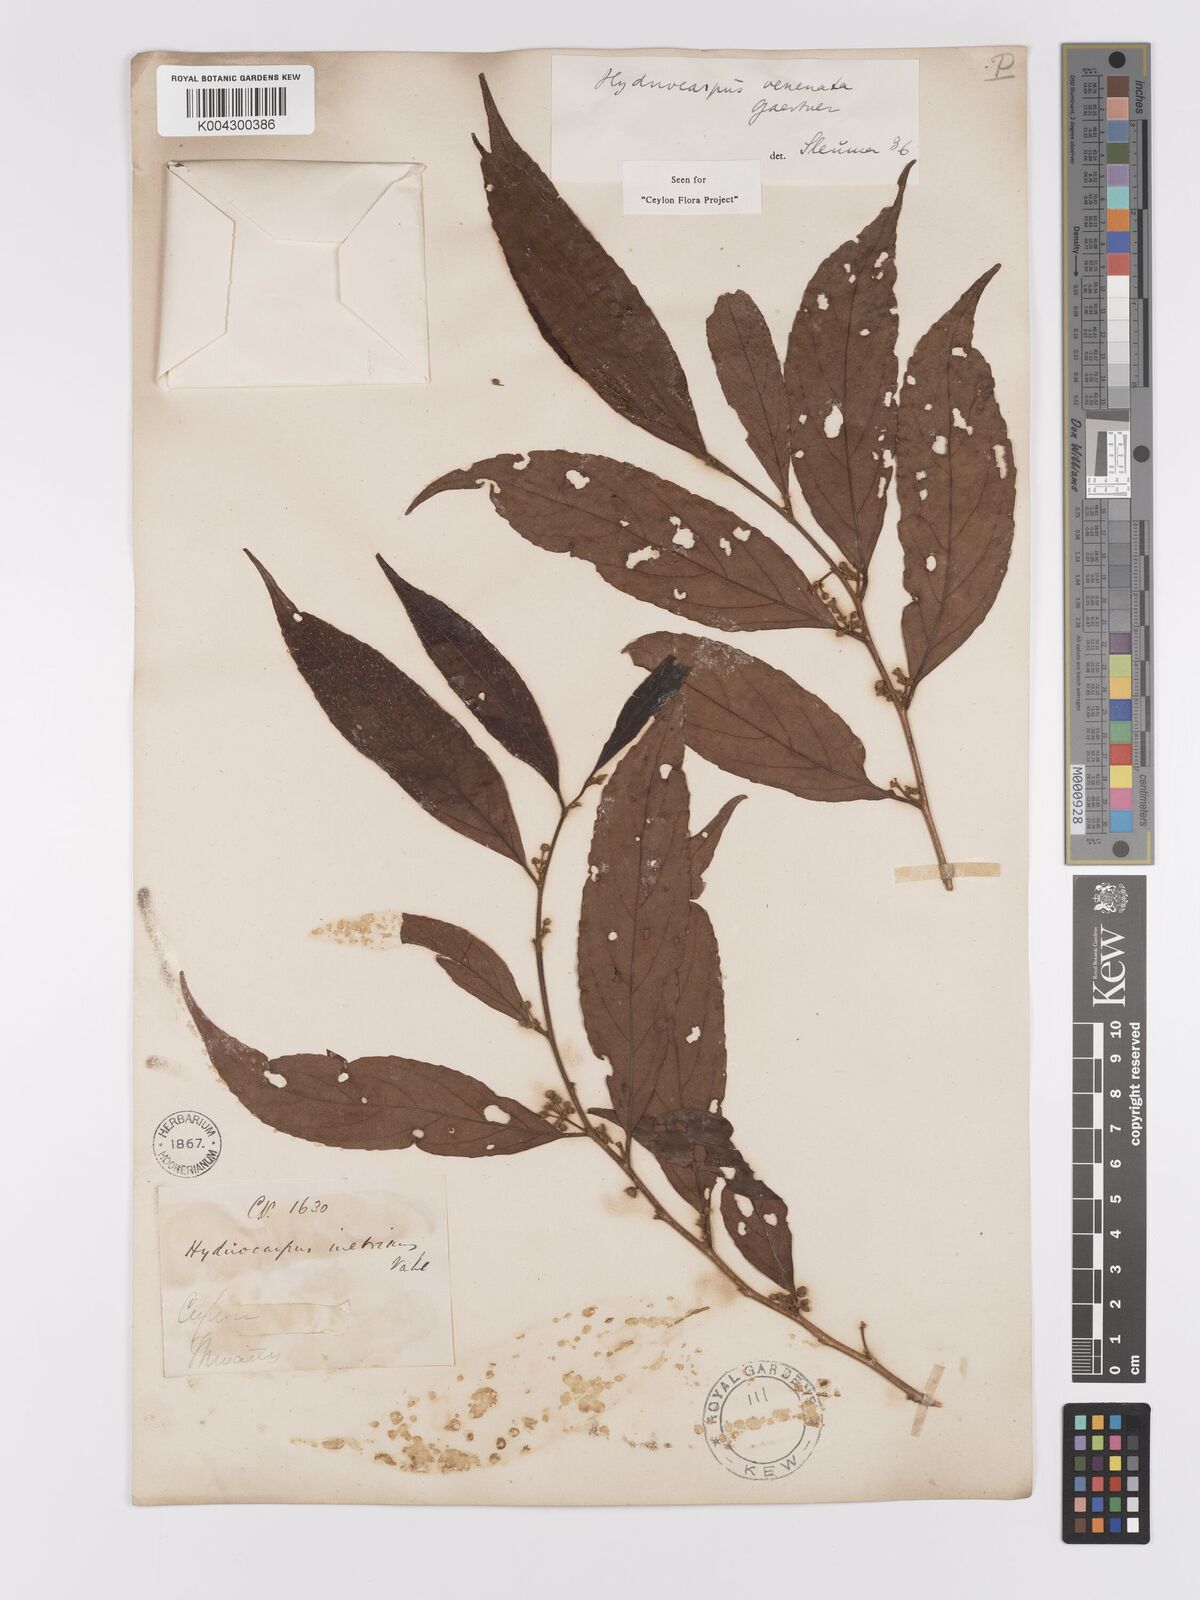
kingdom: Plantae
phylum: Tracheophyta
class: Magnoliopsida
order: Malpighiales
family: Achariaceae
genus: Hydnocarpus
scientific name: Hydnocarpus venenatus
